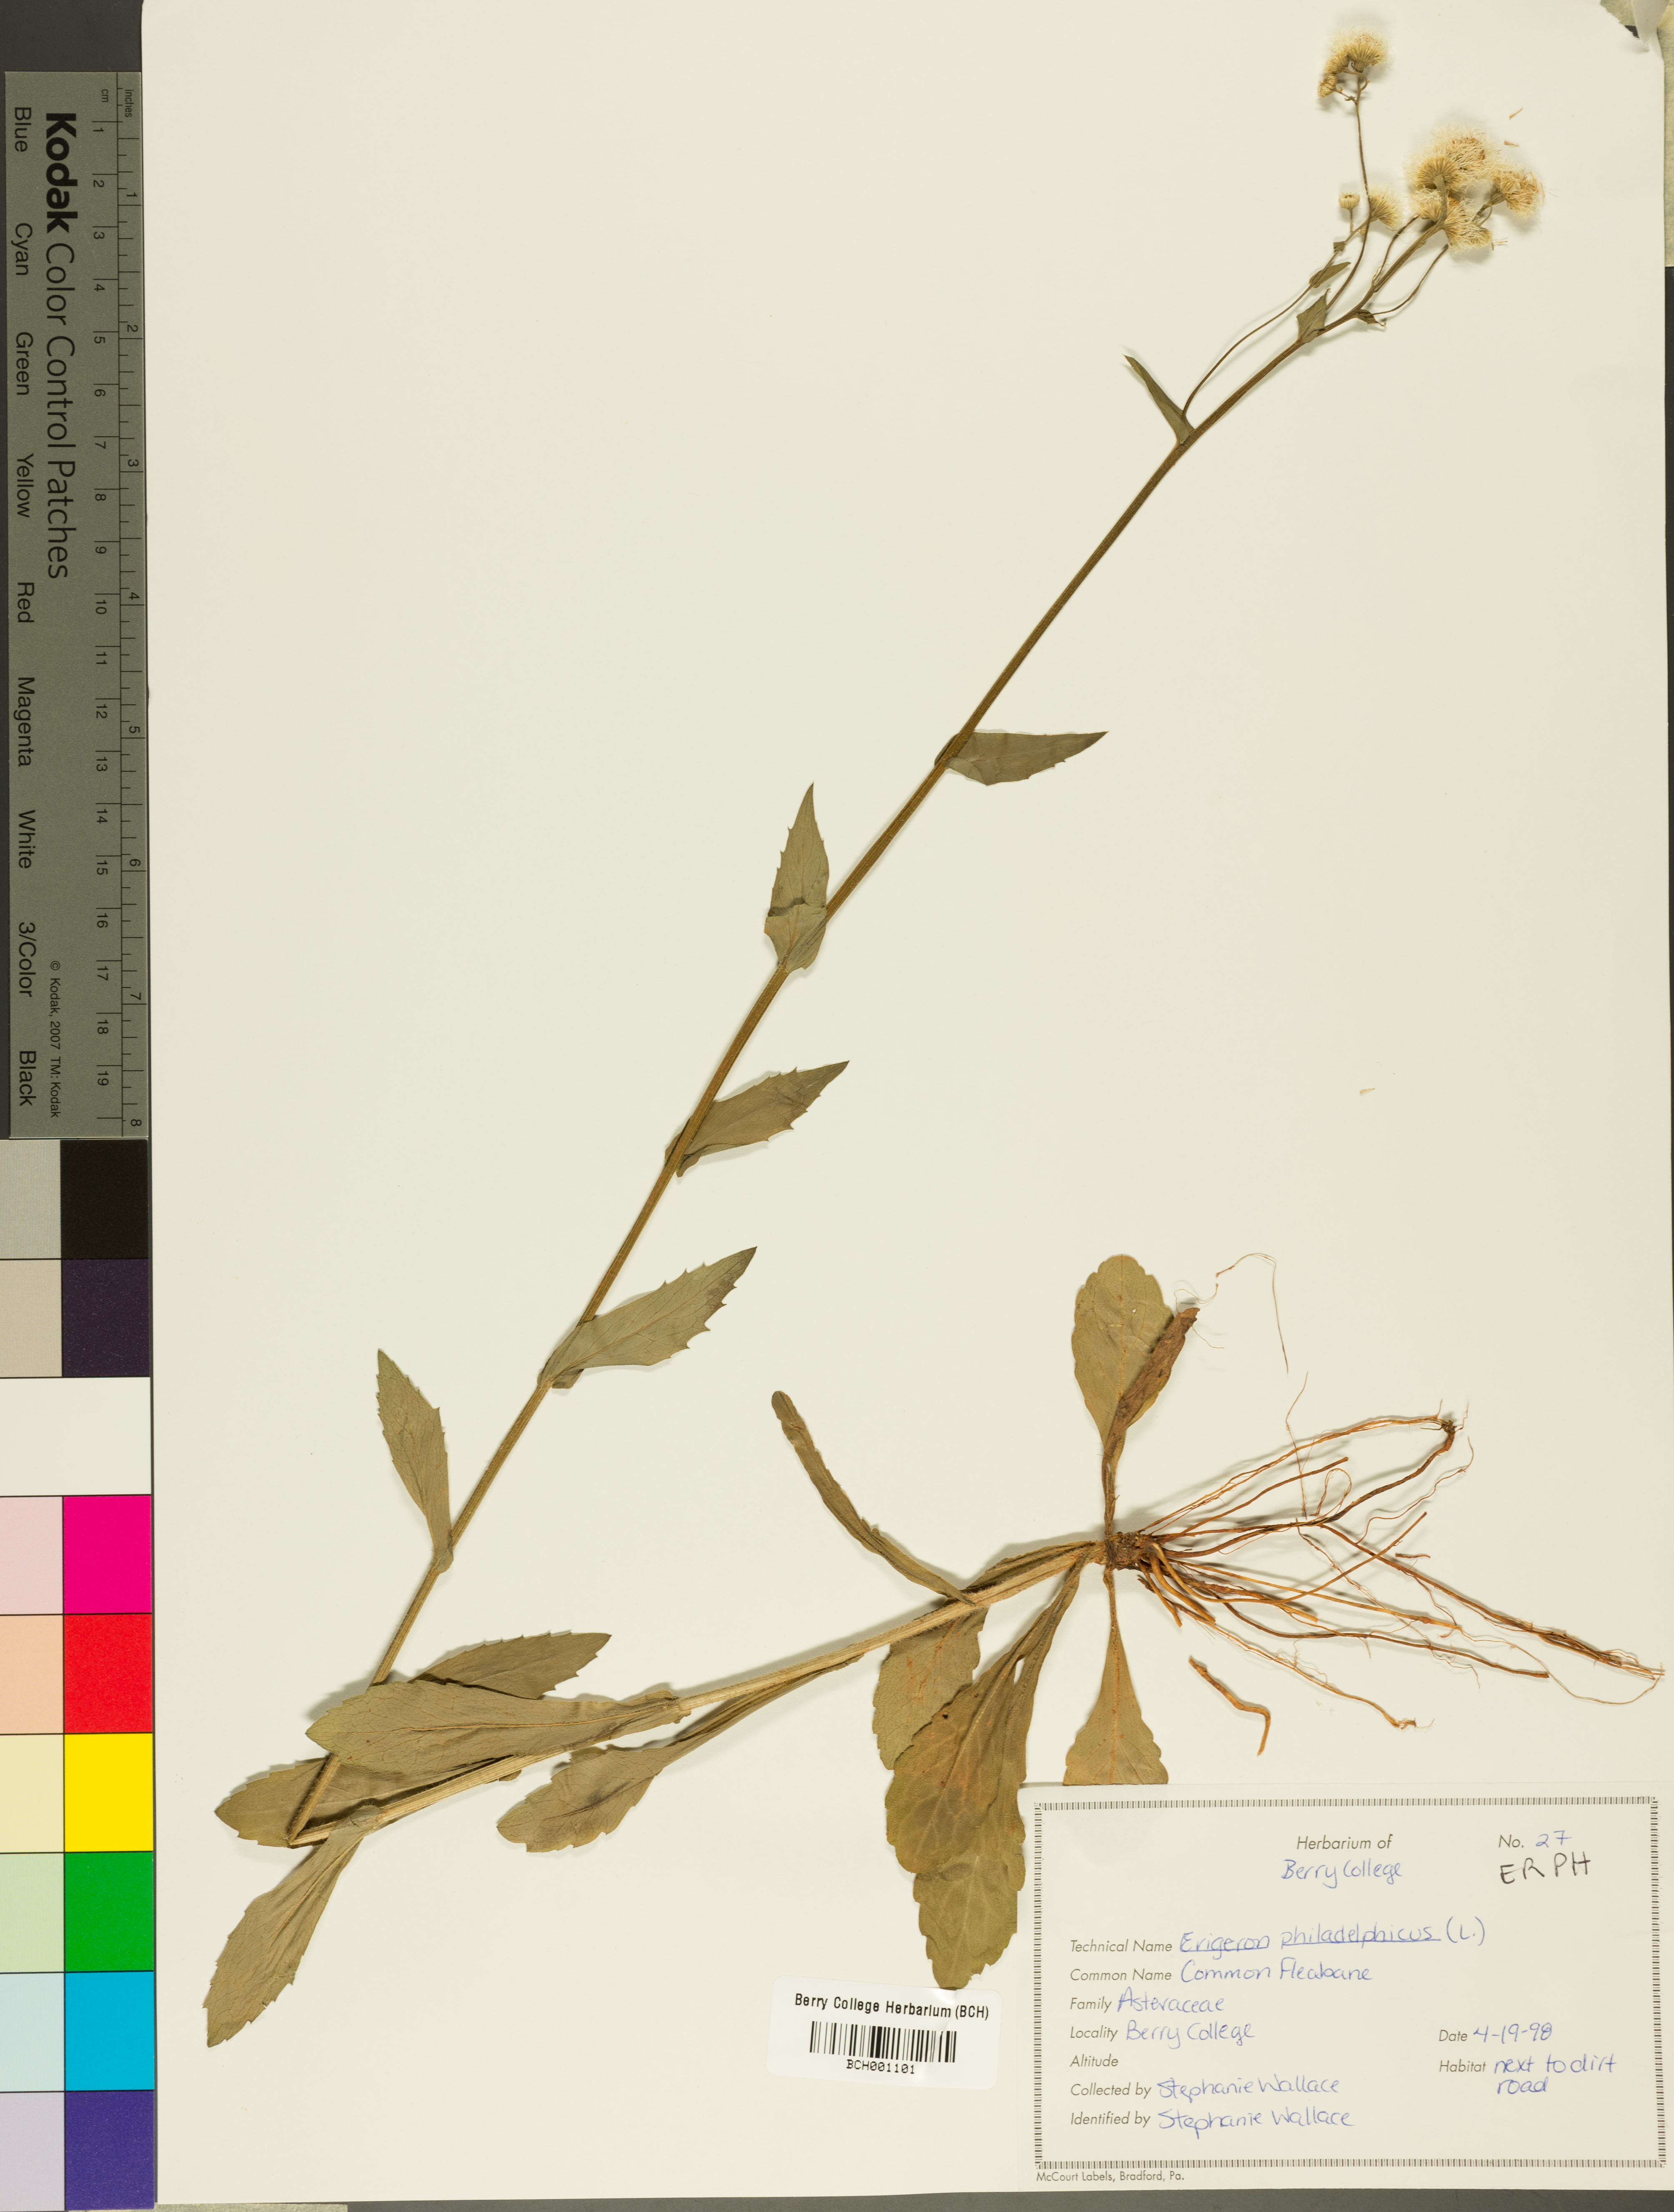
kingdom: Plantae
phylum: Tracheophyta
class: Magnoliopsida
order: Asterales
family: Asteraceae
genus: Erigeron
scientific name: Erigeron philadelphicus
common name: Robin's-plantain
